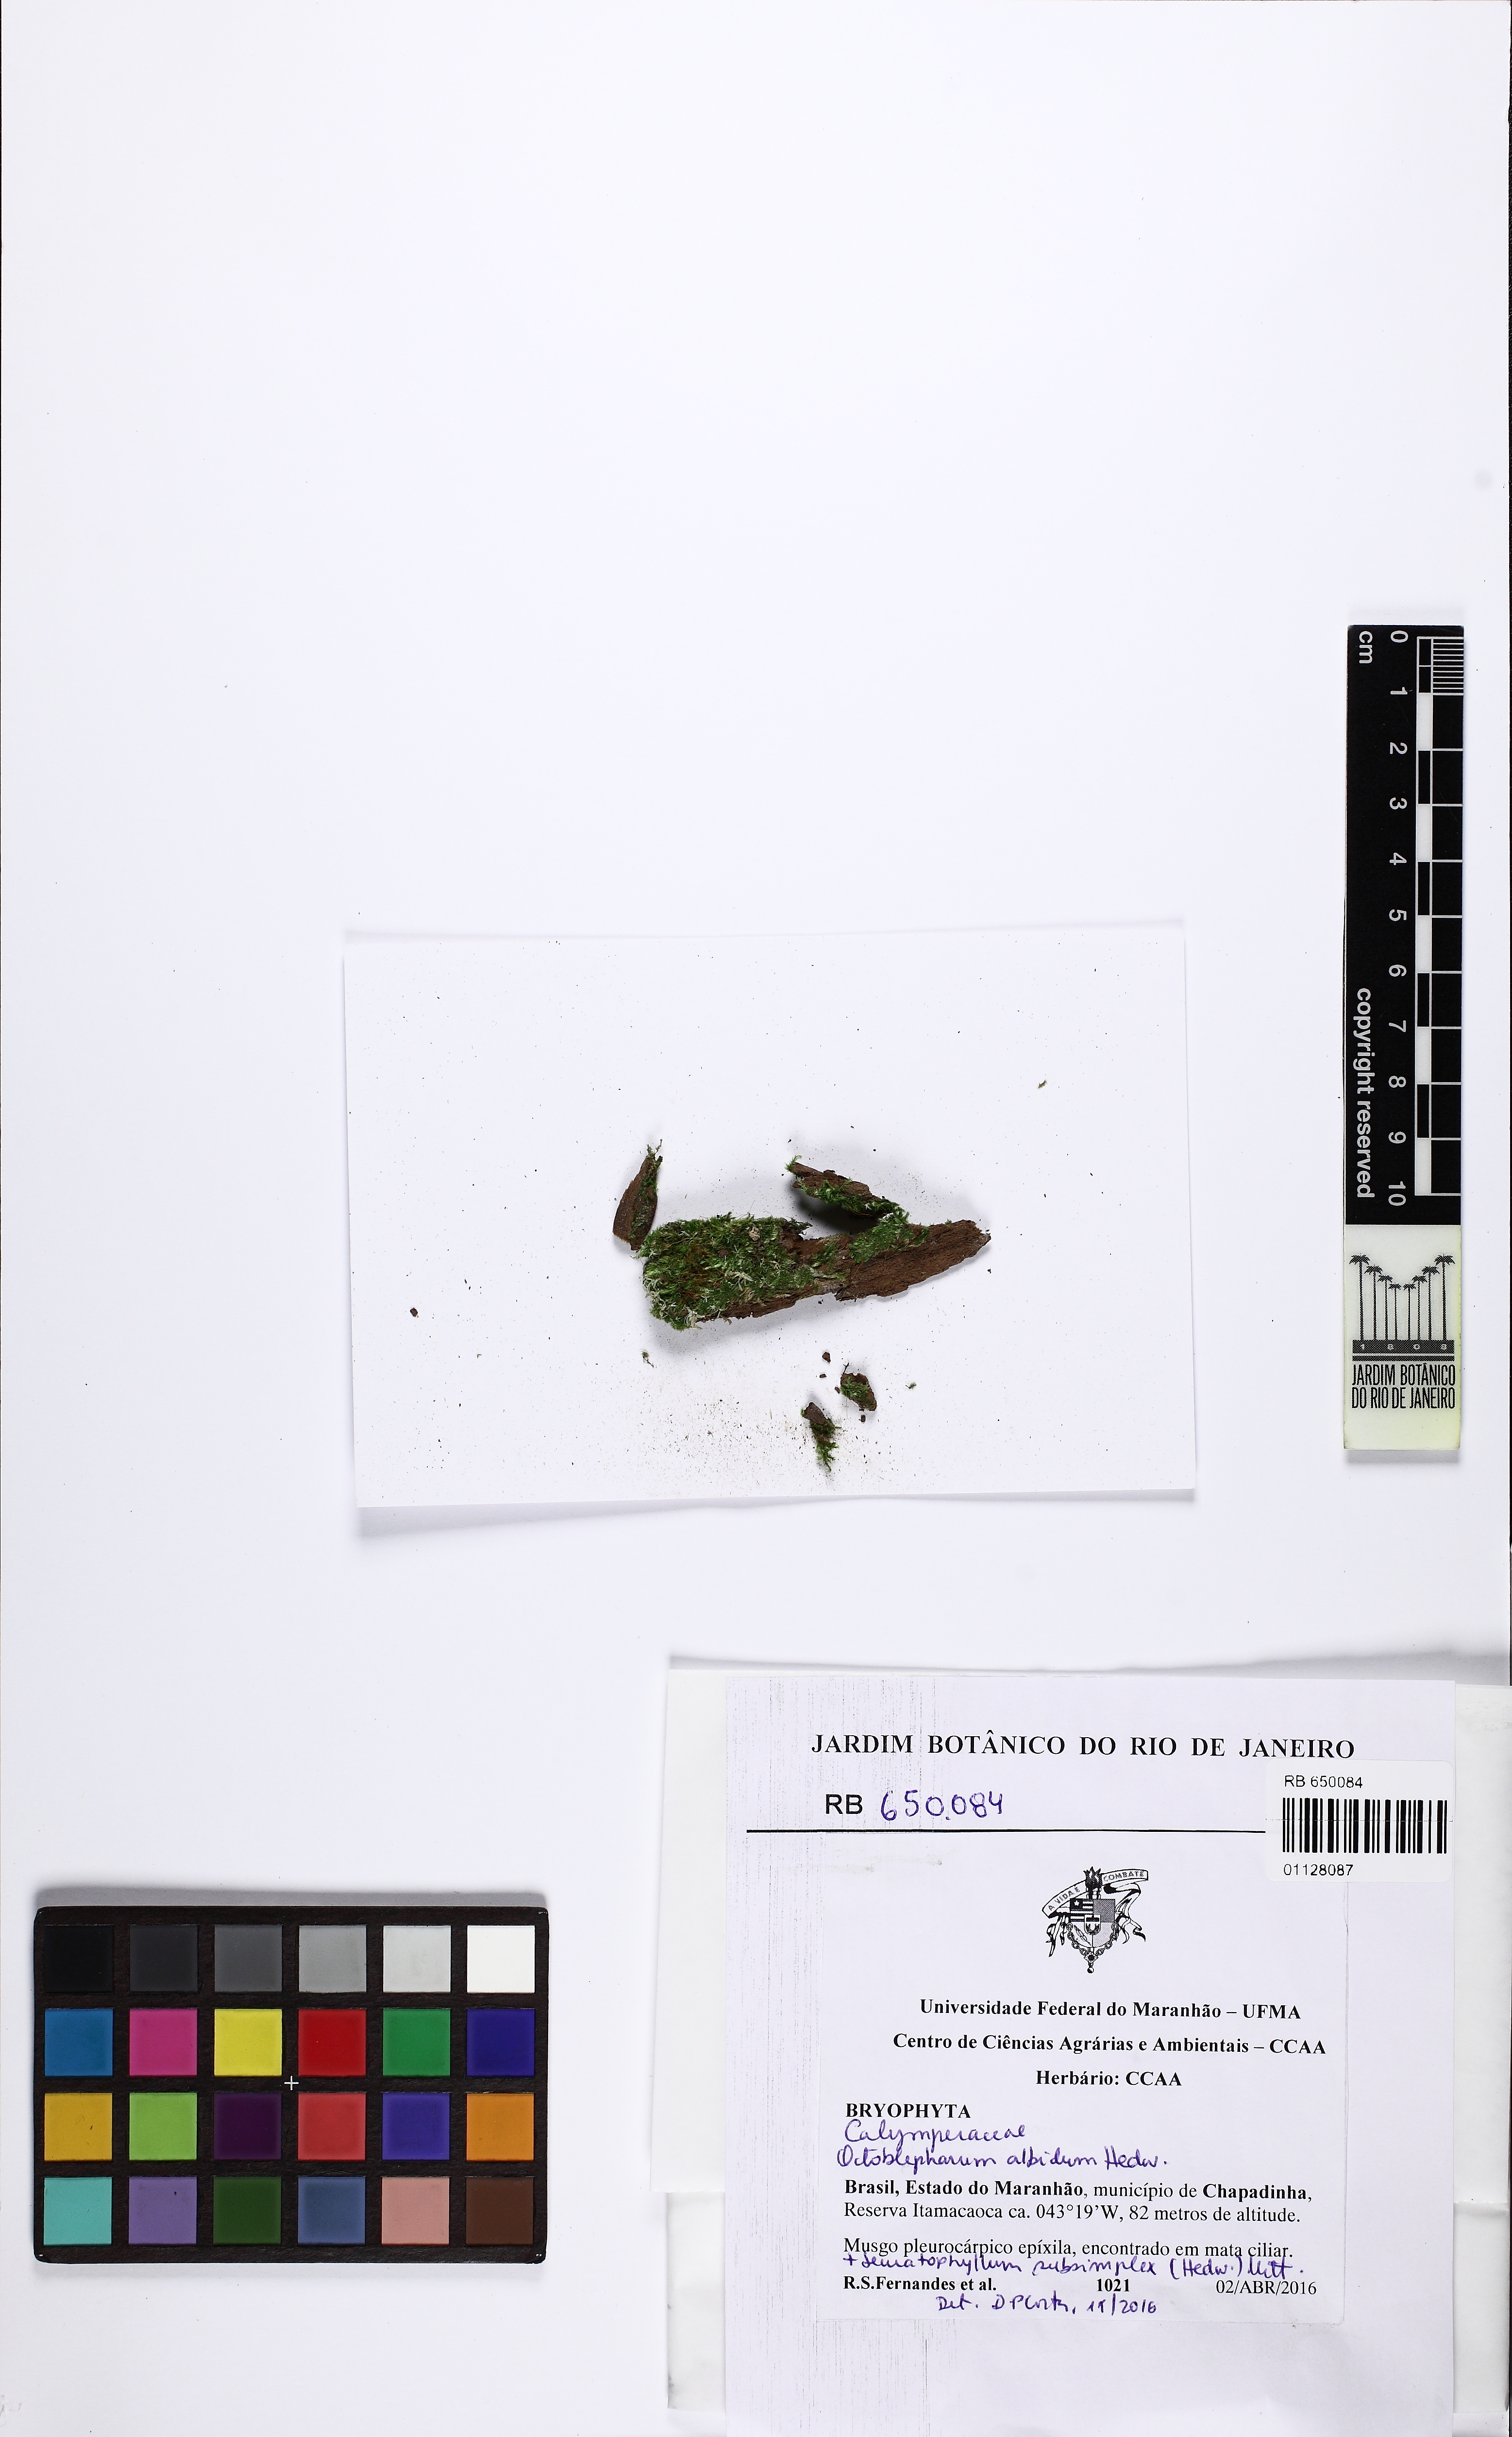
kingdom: Plantae
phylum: Bryophyta
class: Bryopsida
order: Dicranales
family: Octoblepharaceae
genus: Octoblepharum
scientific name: Octoblepharum albidum
